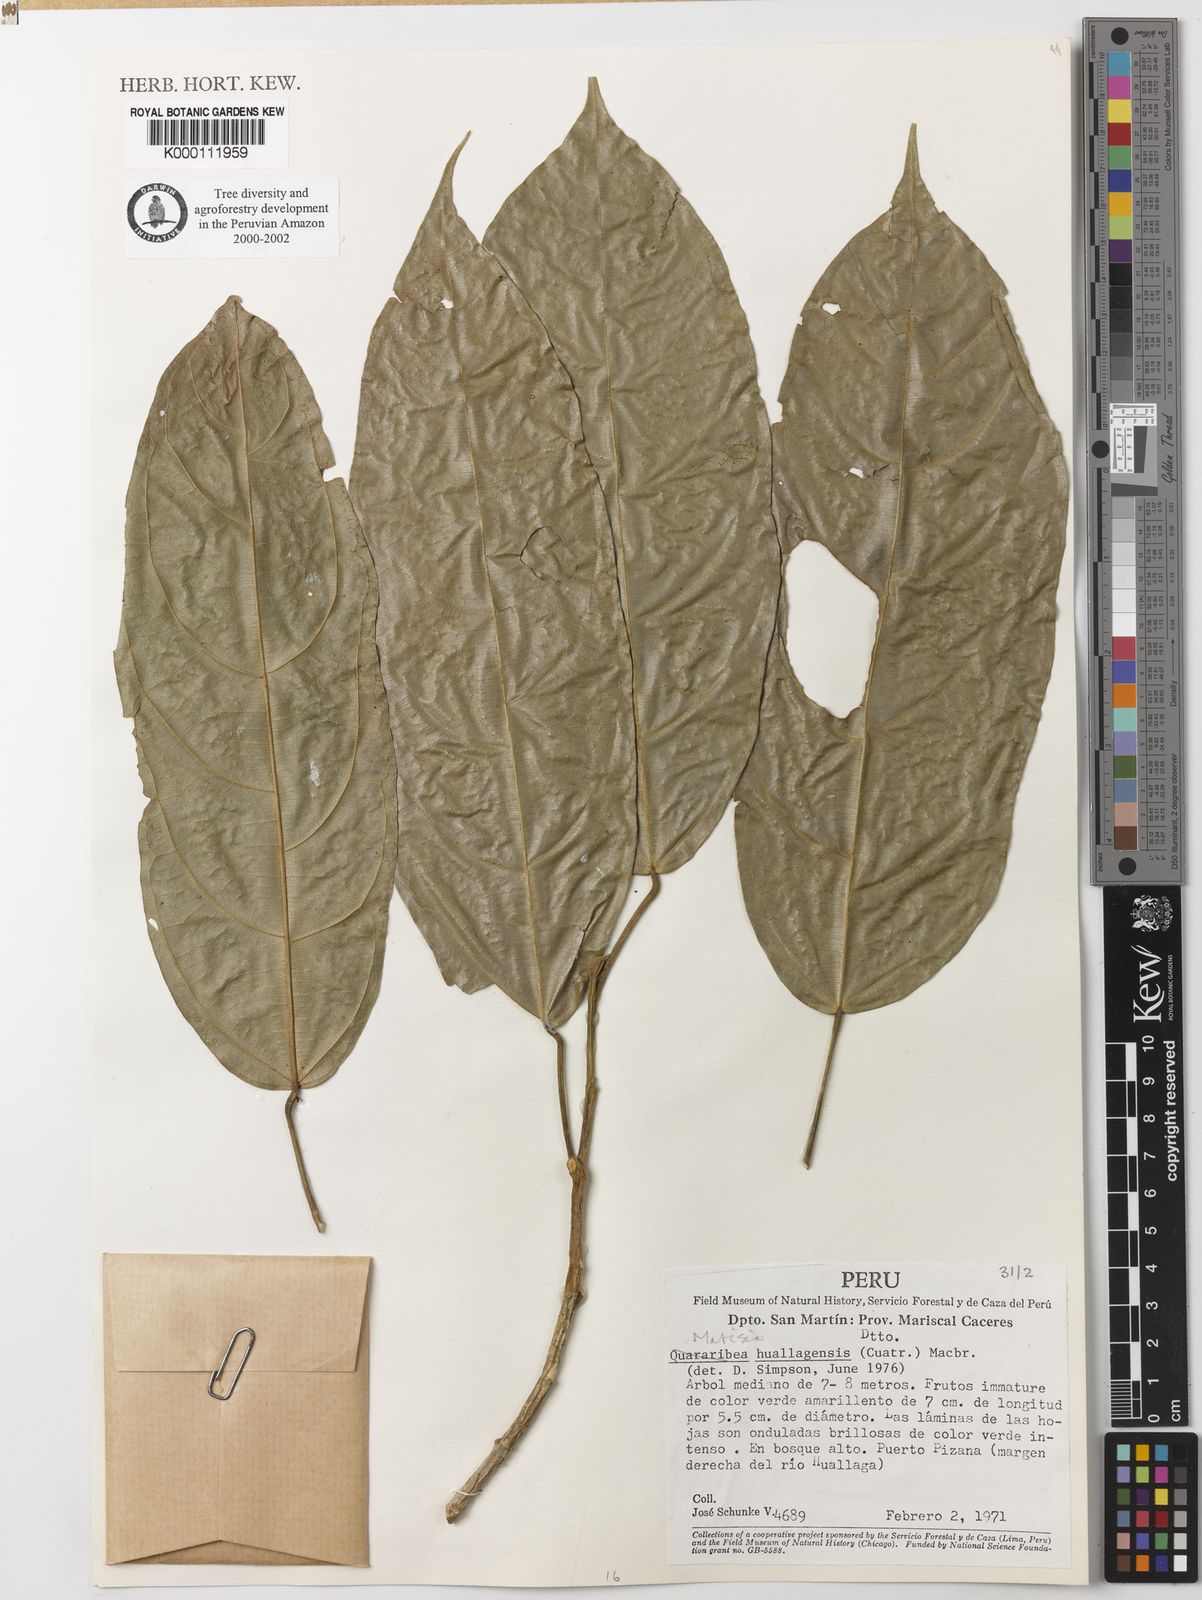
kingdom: Plantae
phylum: Tracheophyta
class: Magnoliopsida
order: Malvales
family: Malvaceae
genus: Matisia
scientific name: Matisia huallagensis
